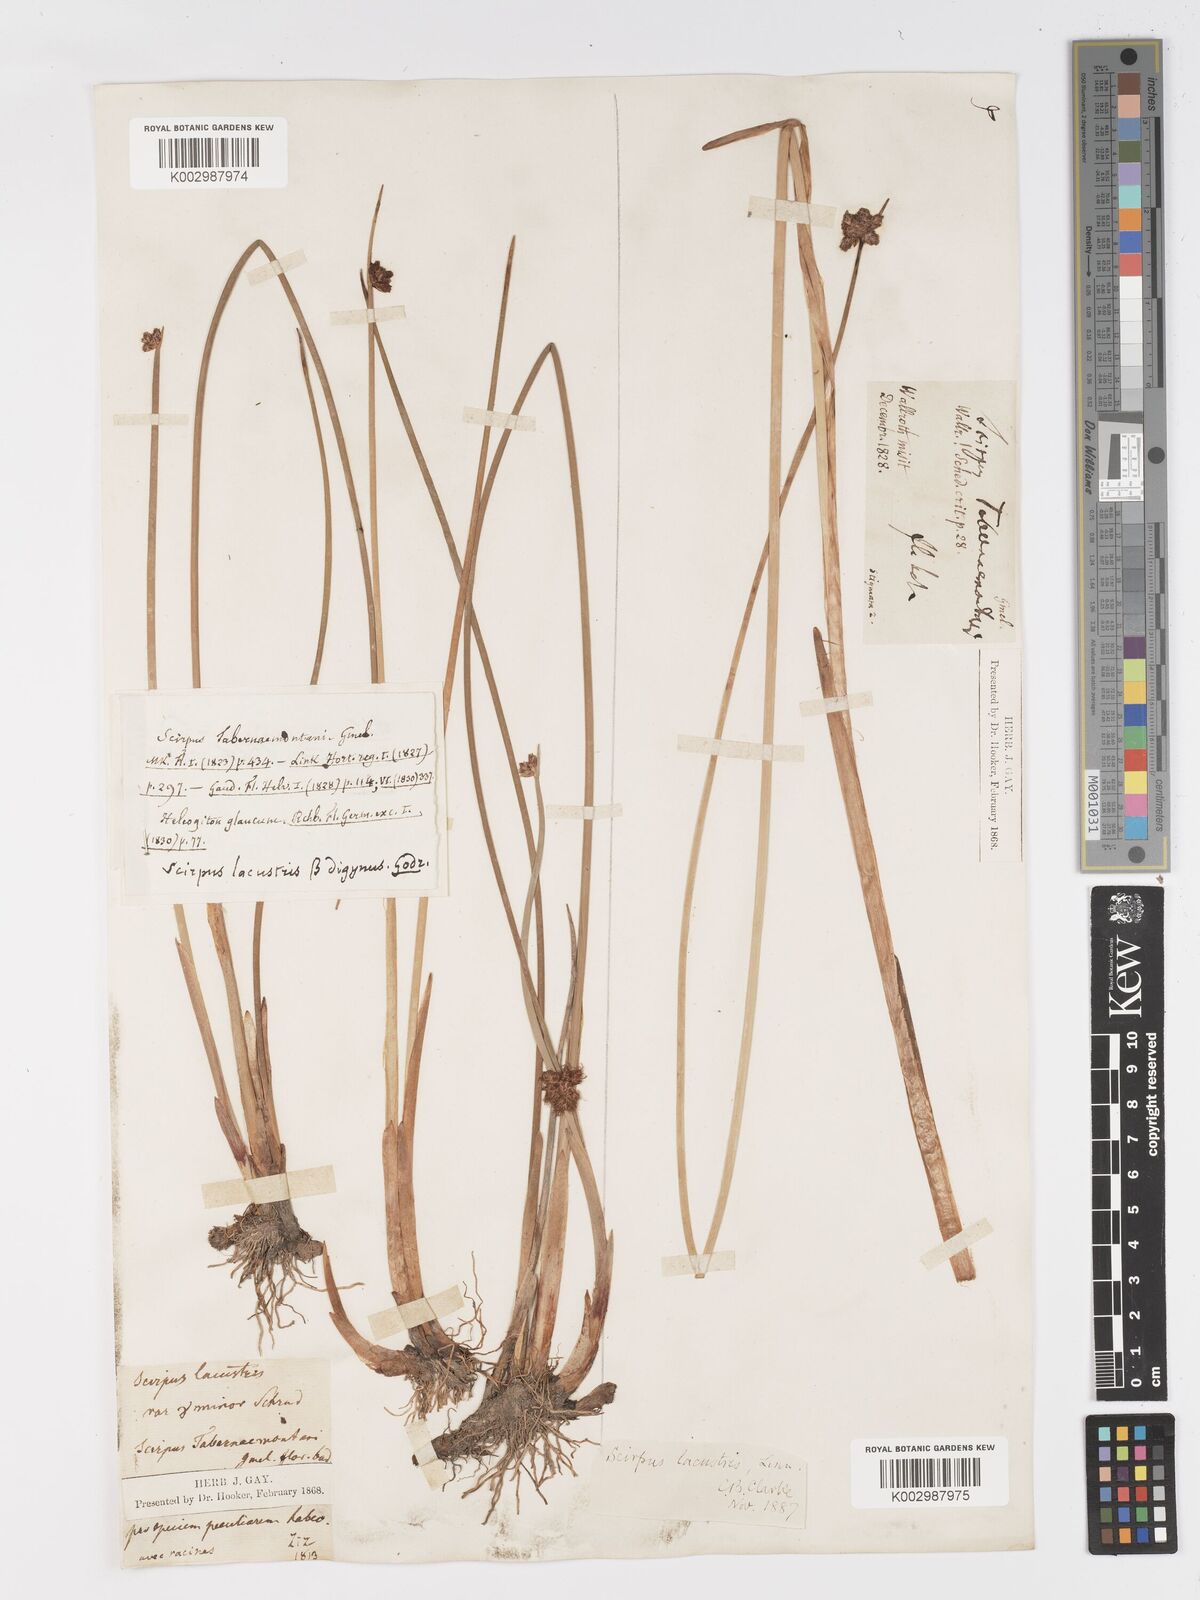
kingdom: Plantae
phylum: Tracheophyta
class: Liliopsida
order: Poales
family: Cyperaceae
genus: Schoenoplectus
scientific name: Schoenoplectus tabernaemontani
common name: Grey club-rush
